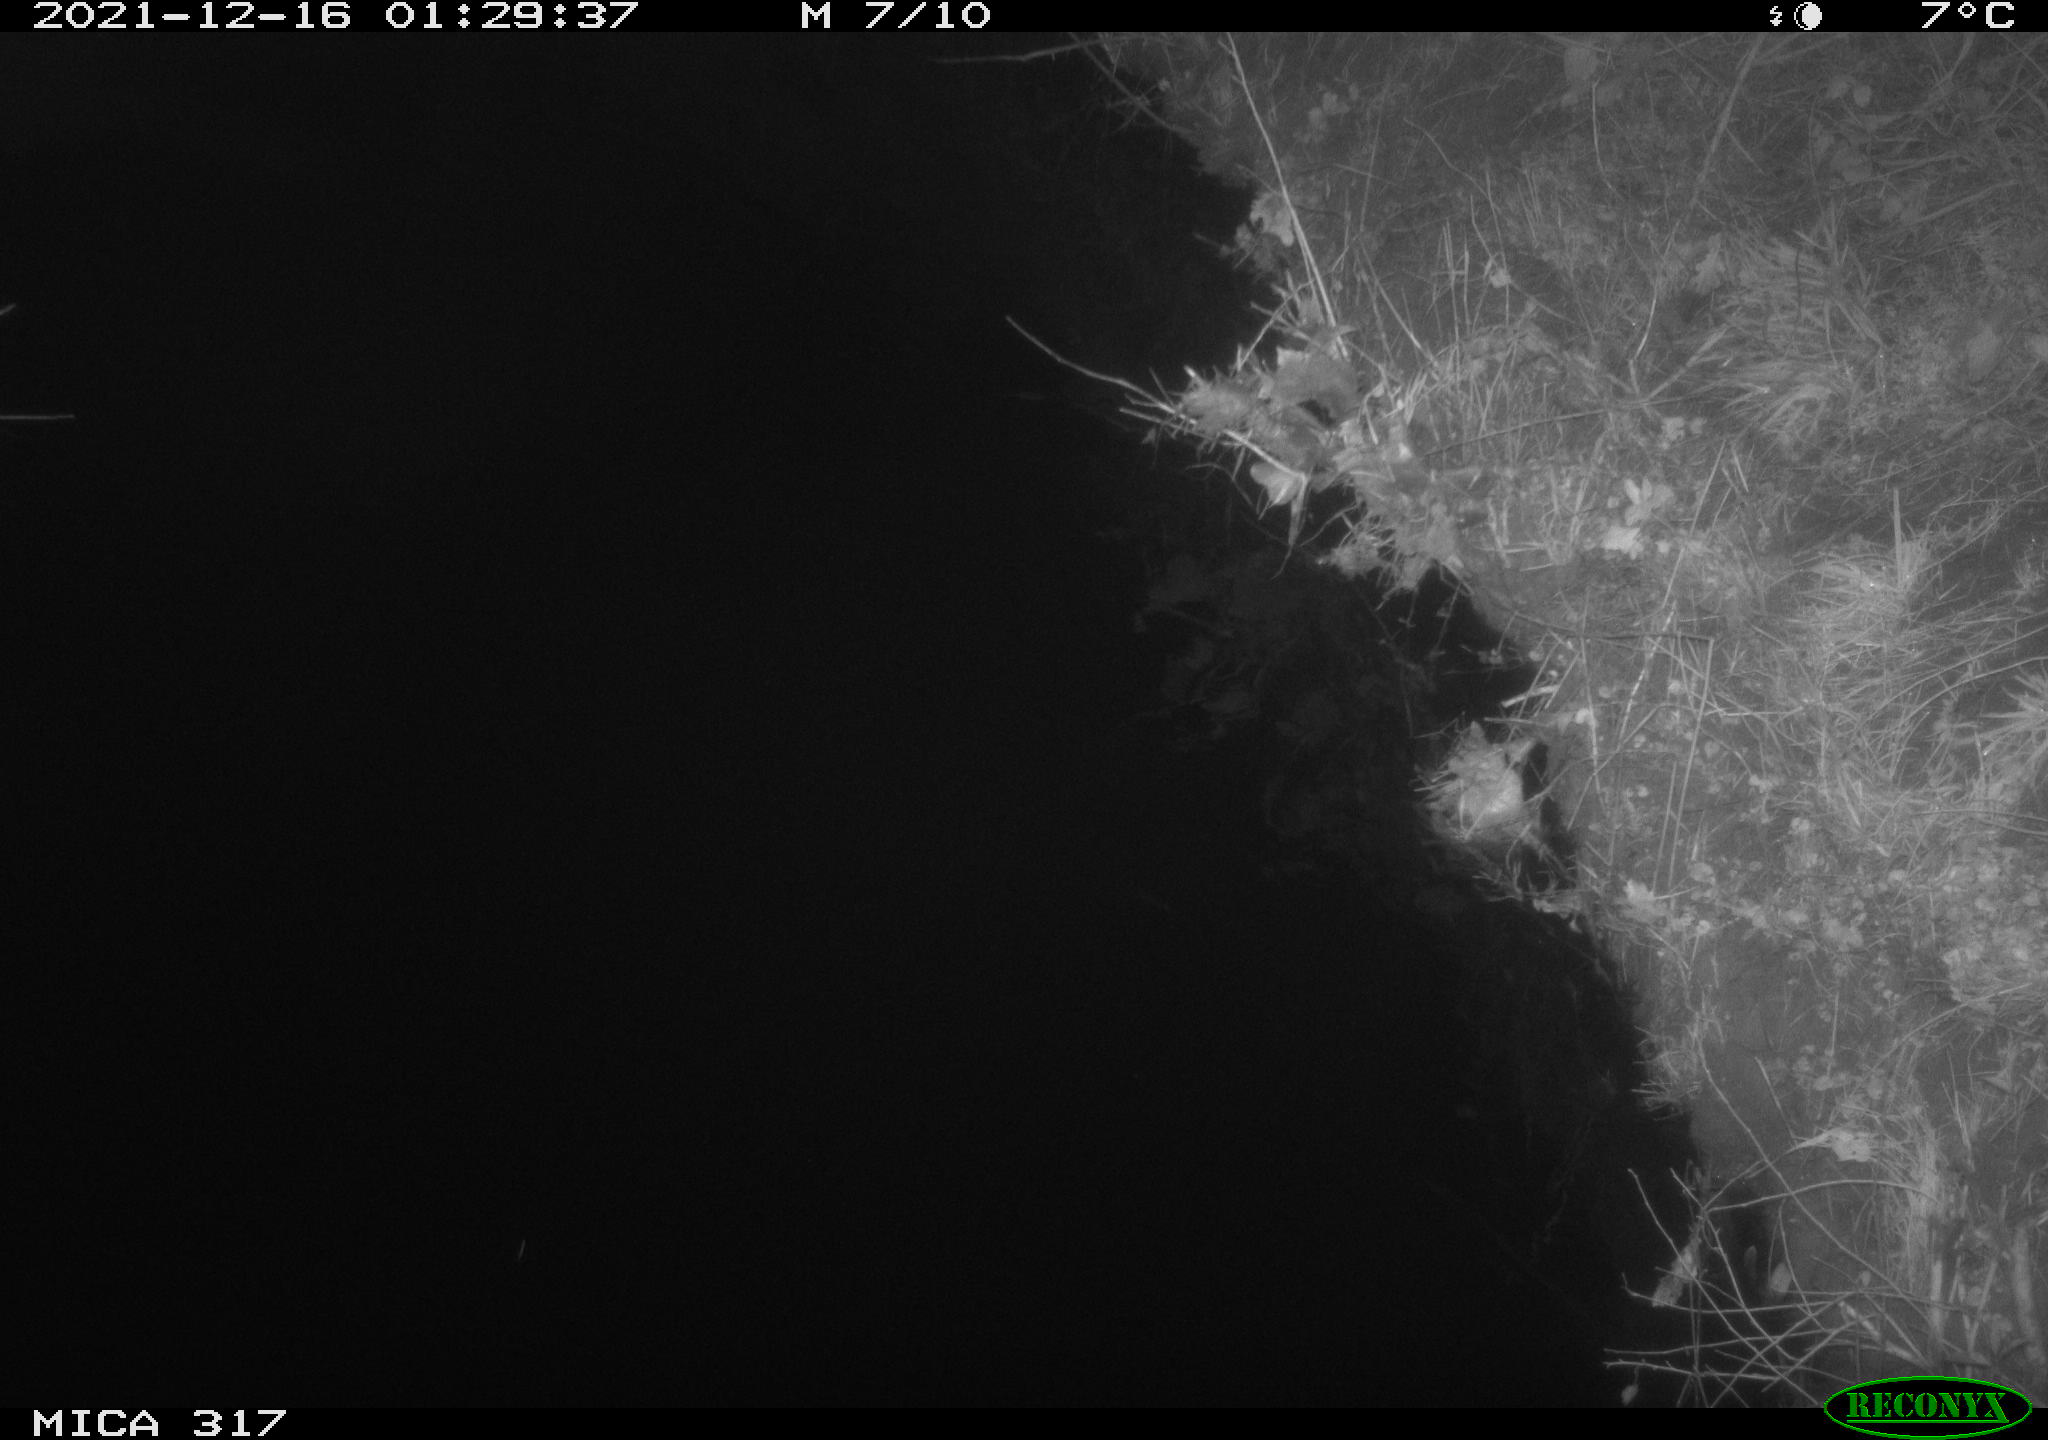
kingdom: Animalia
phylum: Chordata
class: Mammalia
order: Rodentia
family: Muridae
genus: Rattus
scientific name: Rattus norvegicus
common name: Brown rat
